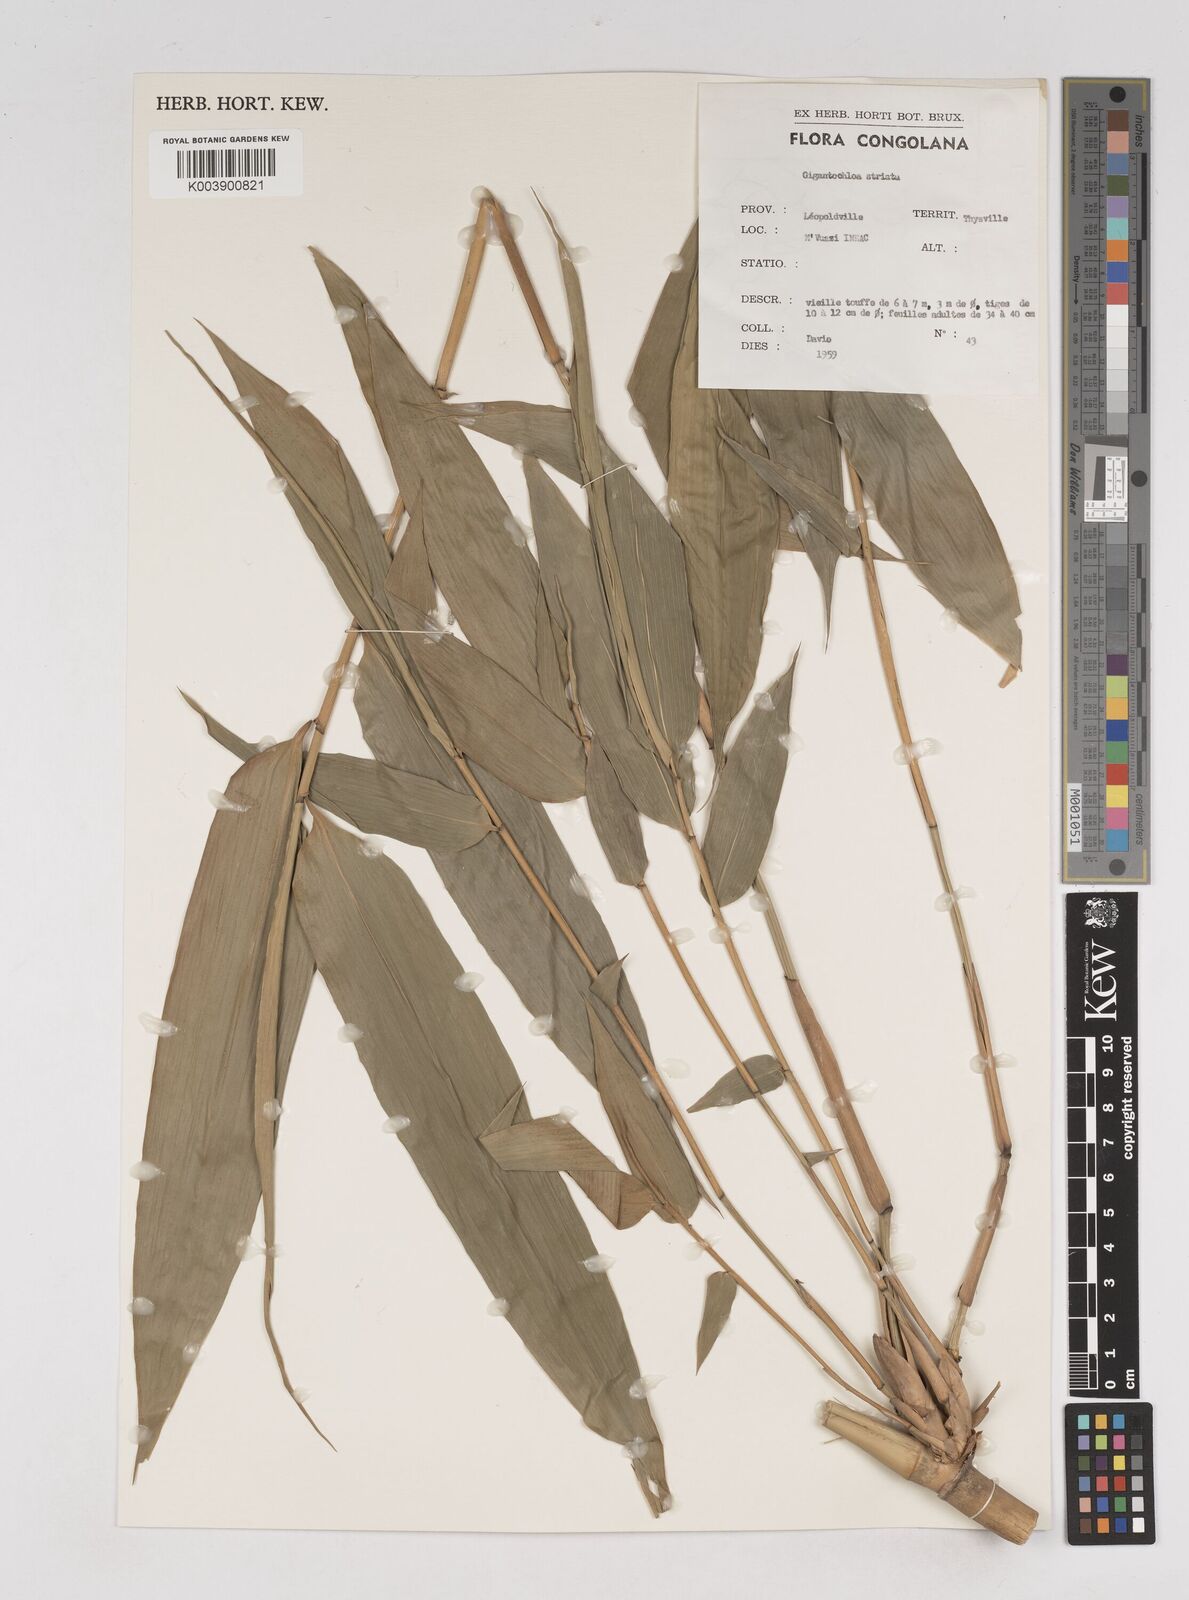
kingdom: Plantae
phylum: Tracheophyta
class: Liliopsida
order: Poales
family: Poaceae
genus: Gigantochloa
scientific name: Gigantochloa striata
